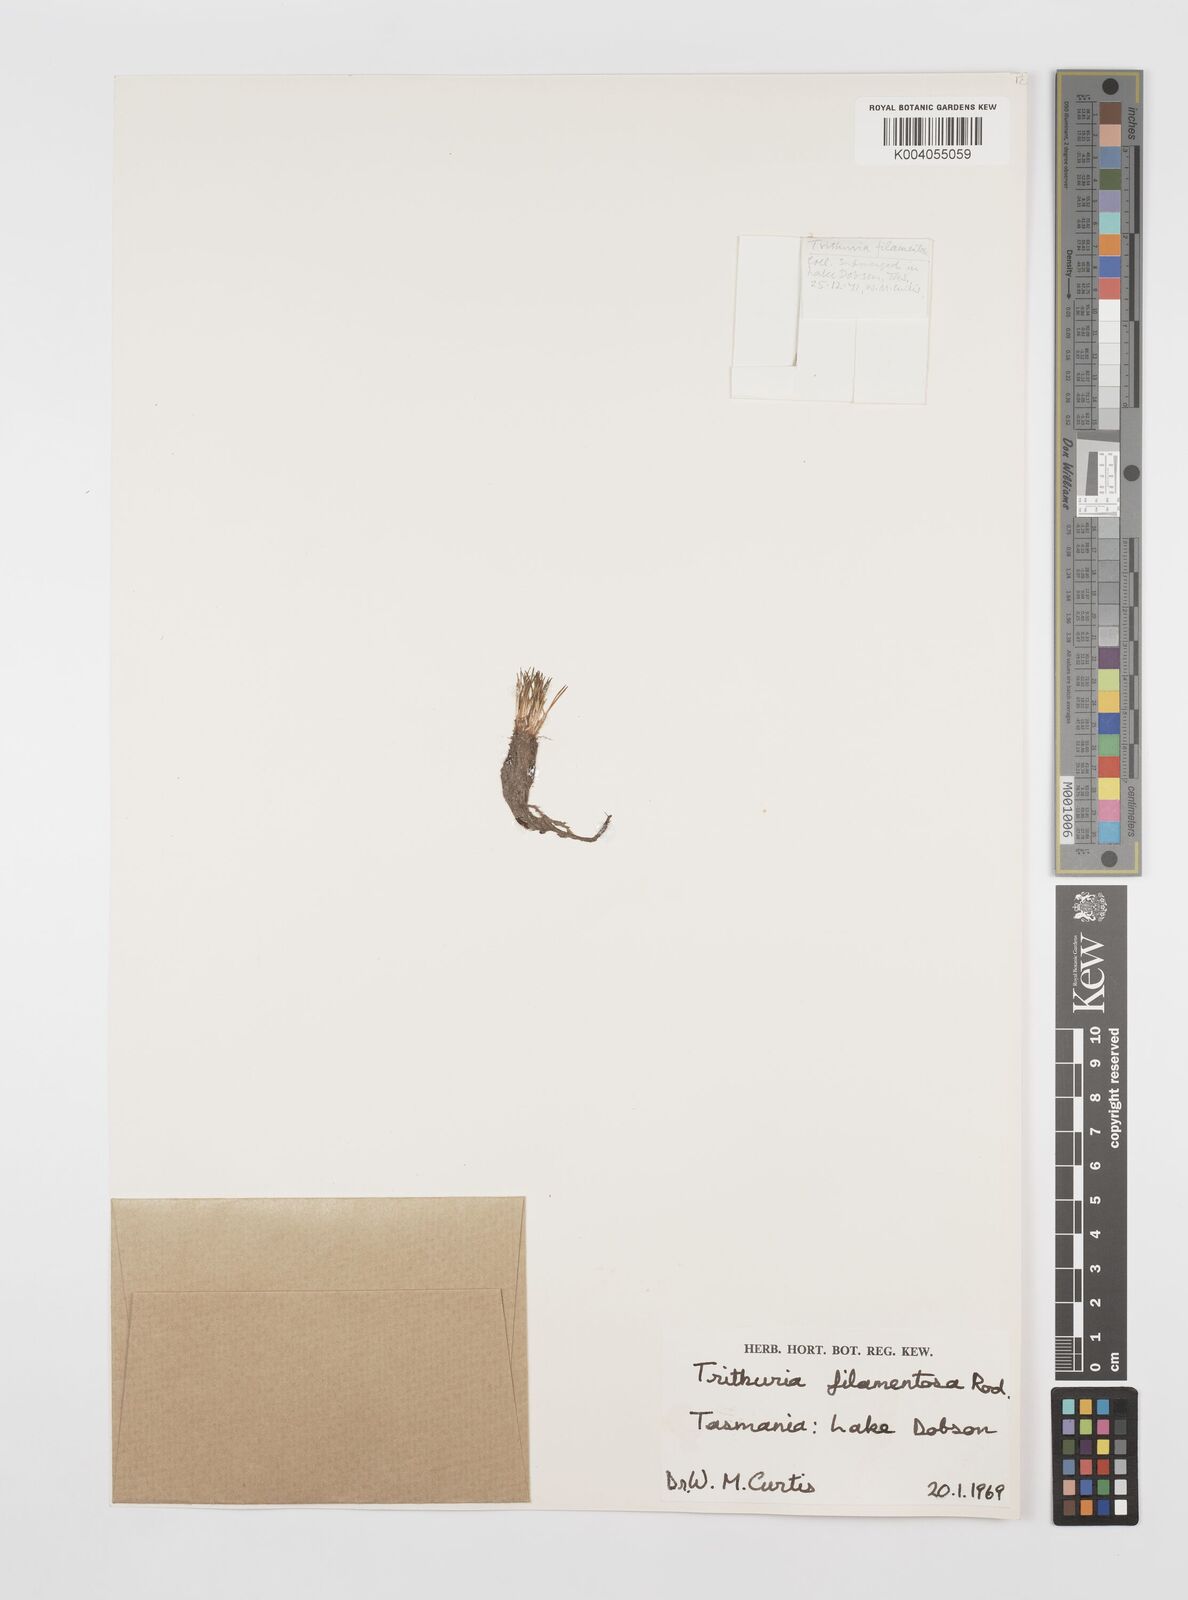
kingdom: Plantae
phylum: Tracheophyta
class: Magnoliopsida
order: Nymphaeales
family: Hydatellaceae
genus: Trithuria
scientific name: Trithuria filamentosa
